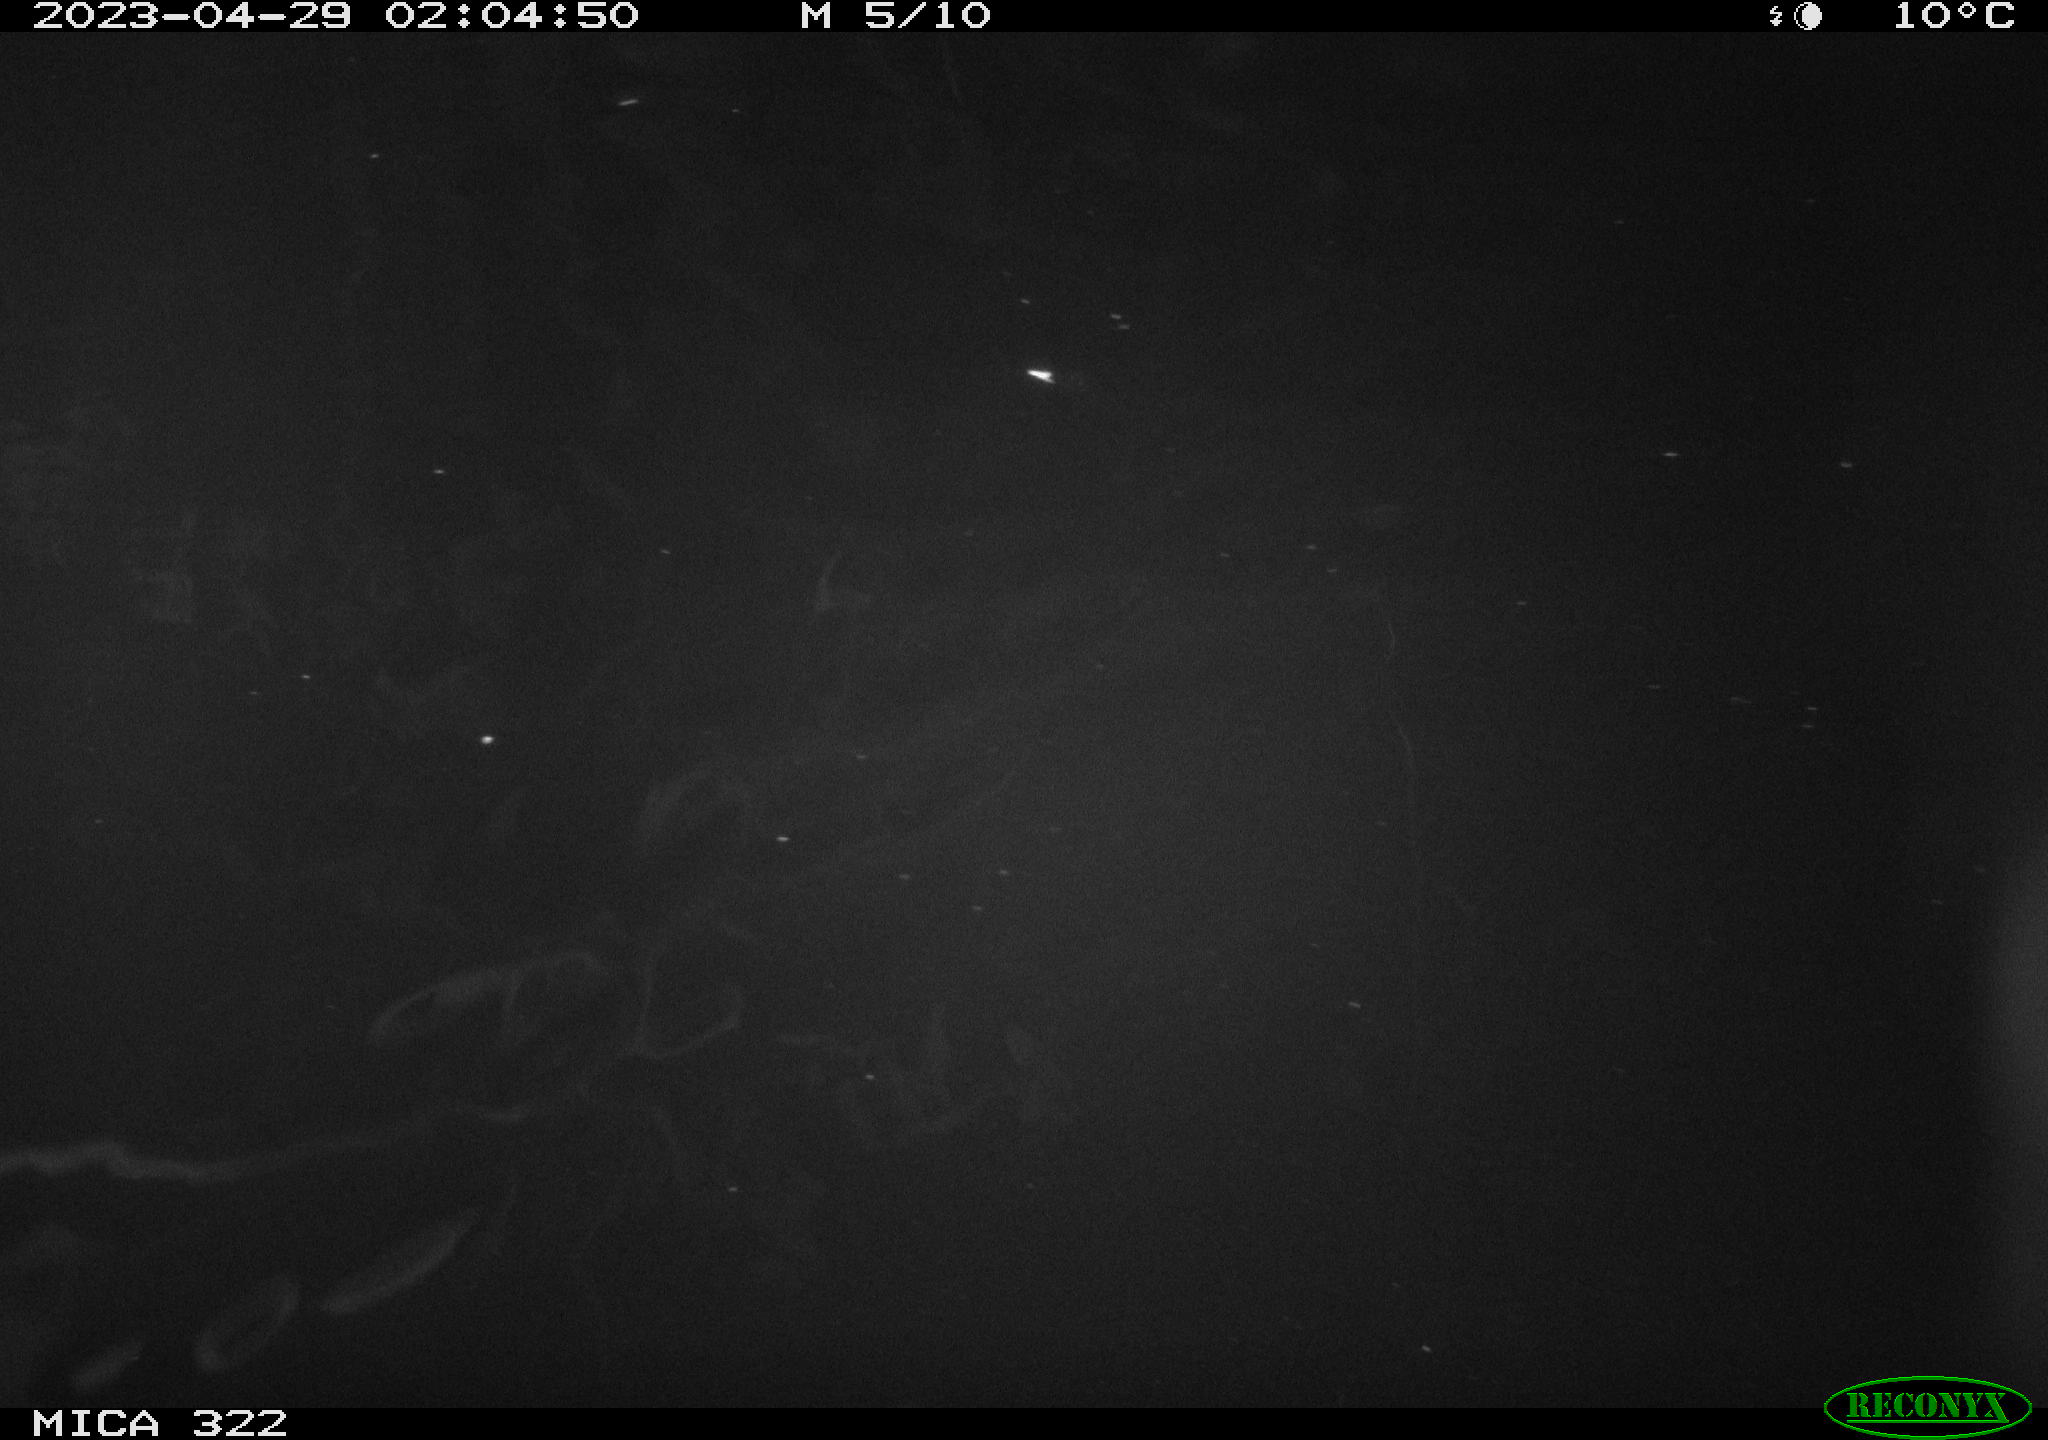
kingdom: Animalia
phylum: Chordata
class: Mammalia
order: Rodentia
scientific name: Rodentia
